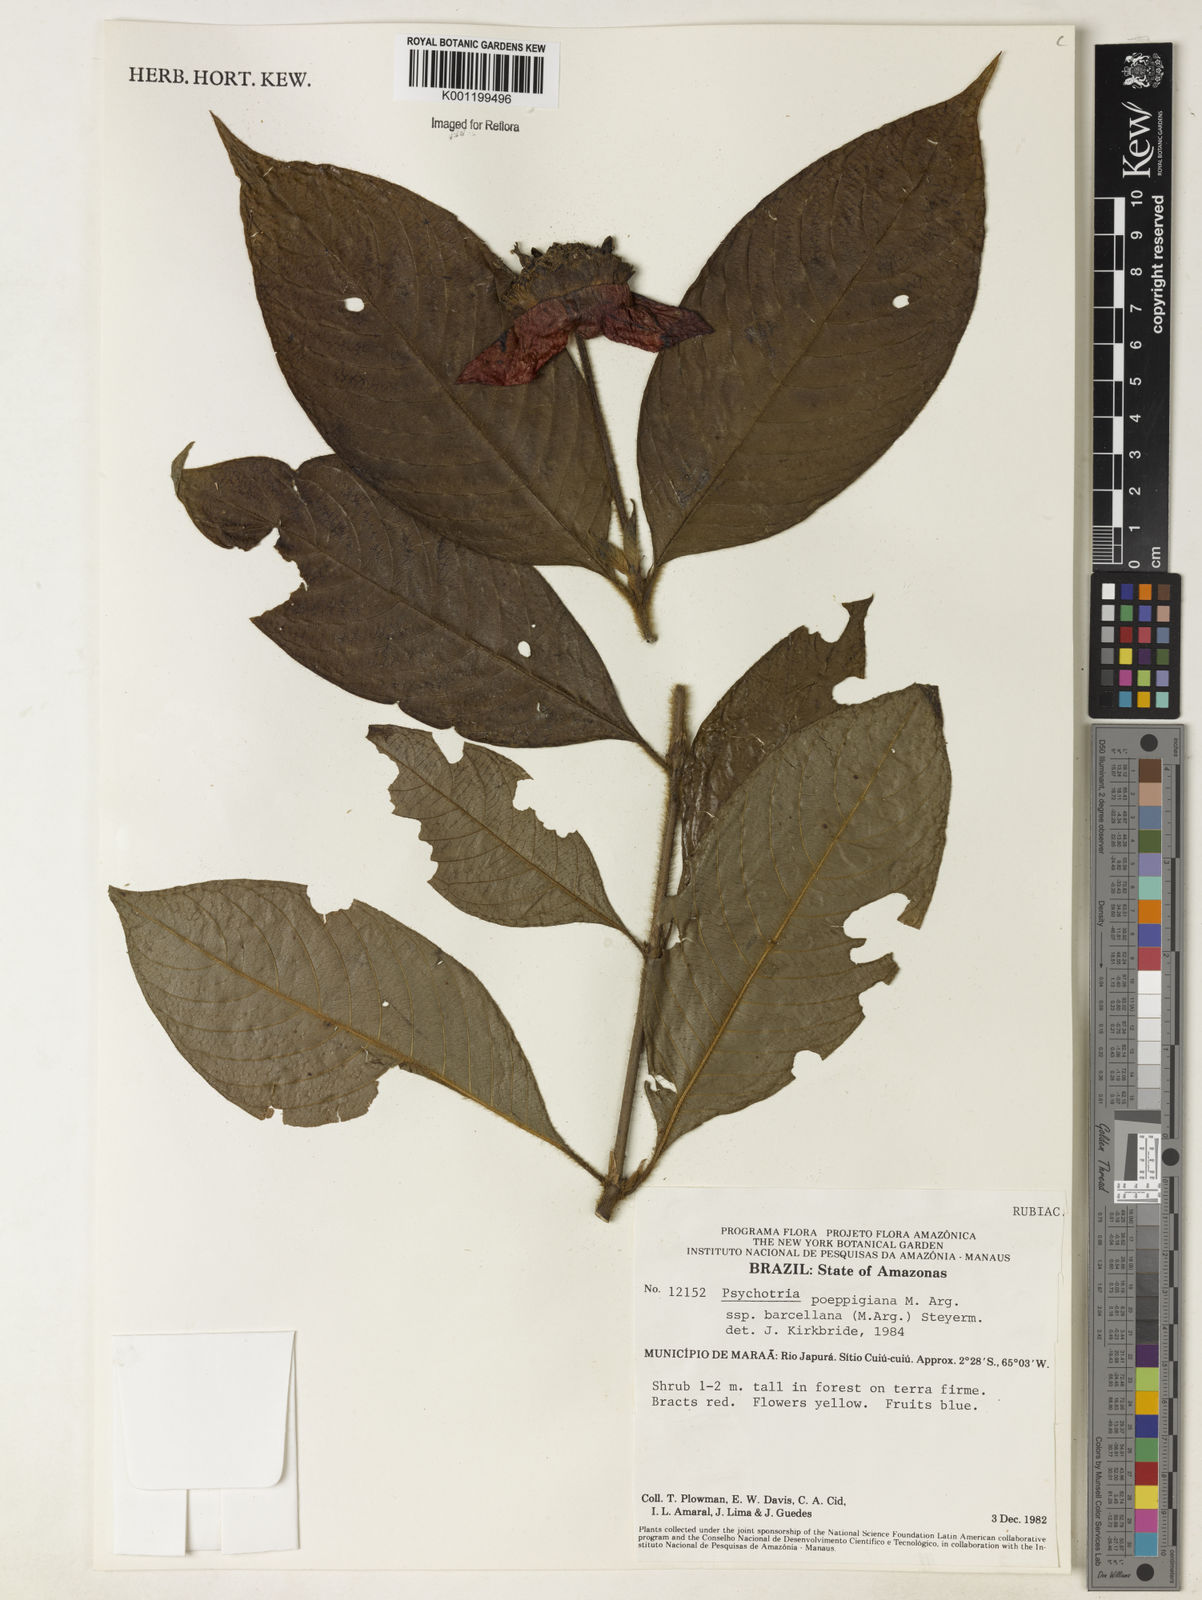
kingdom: Plantae
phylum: Tracheophyta
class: Magnoliopsida
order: Gentianales
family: Rubiaceae
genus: Psychotria
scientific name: Psychotria
